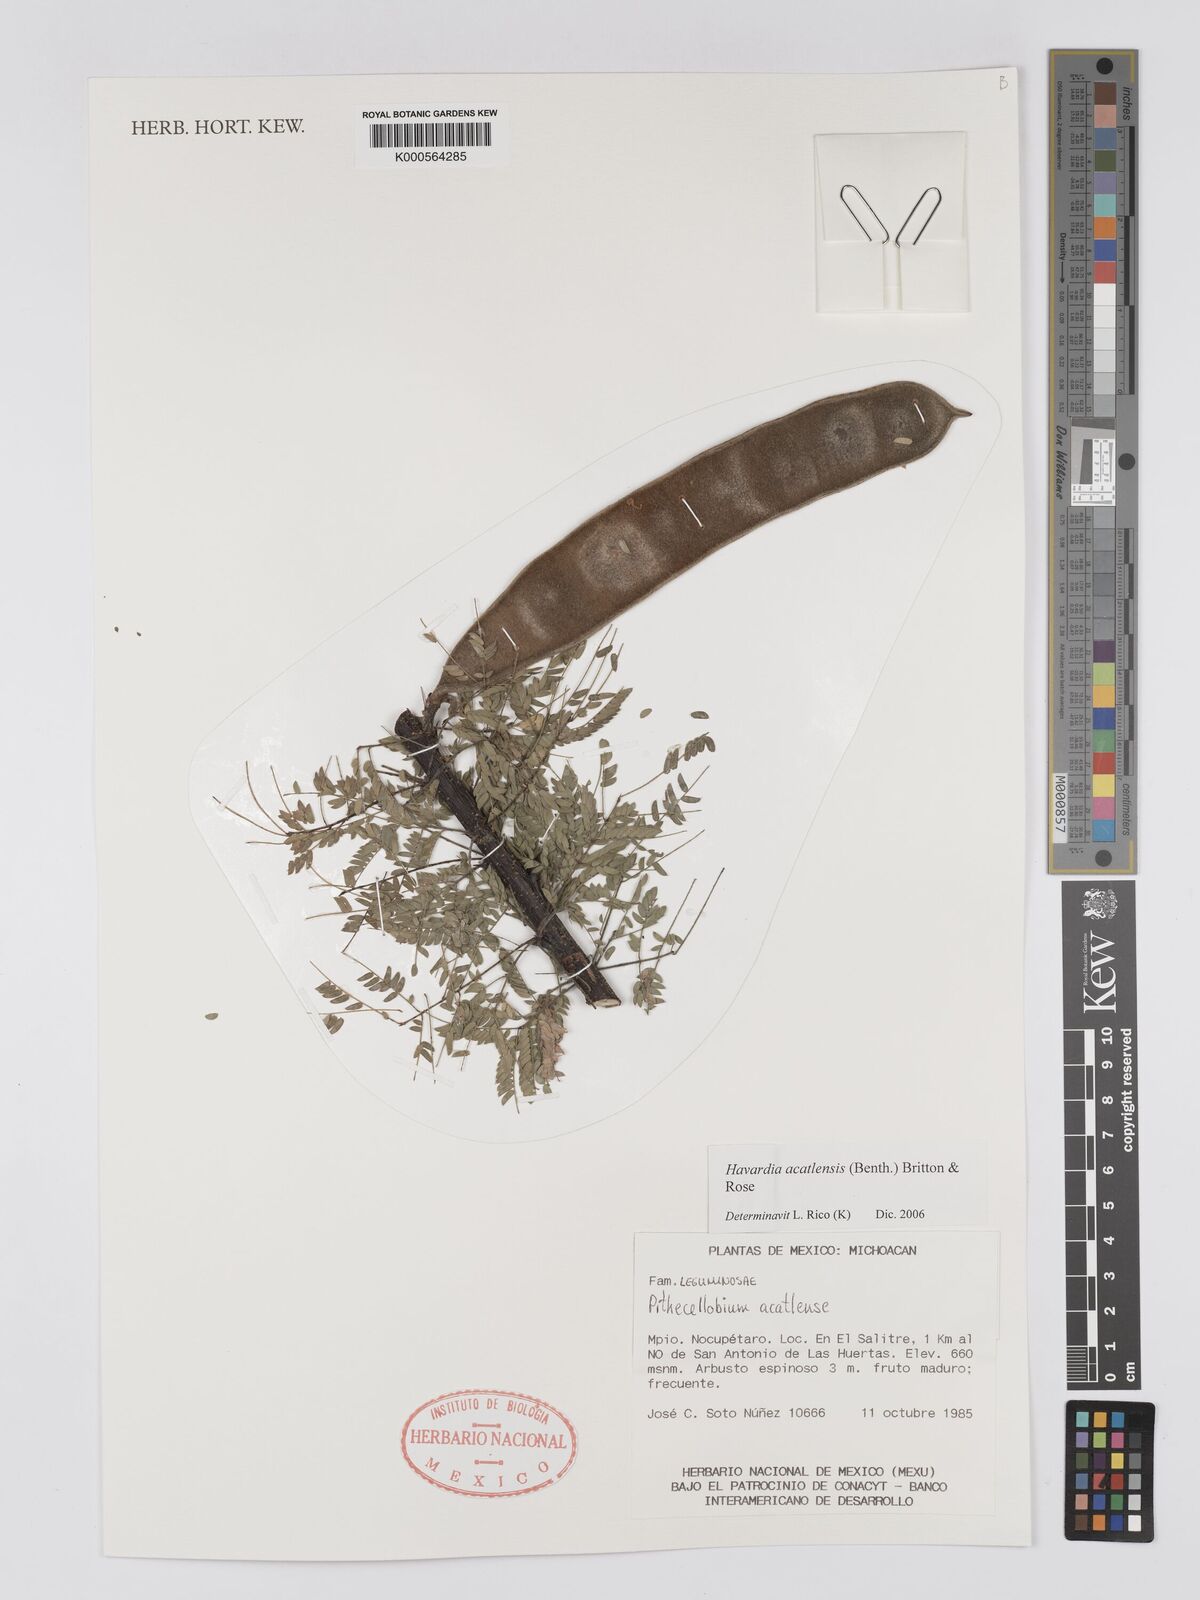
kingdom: Plantae
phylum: Tracheophyta
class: Magnoliopsida
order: Fabales
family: Fabaceae
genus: Havardia
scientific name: Havardia acatlensis
